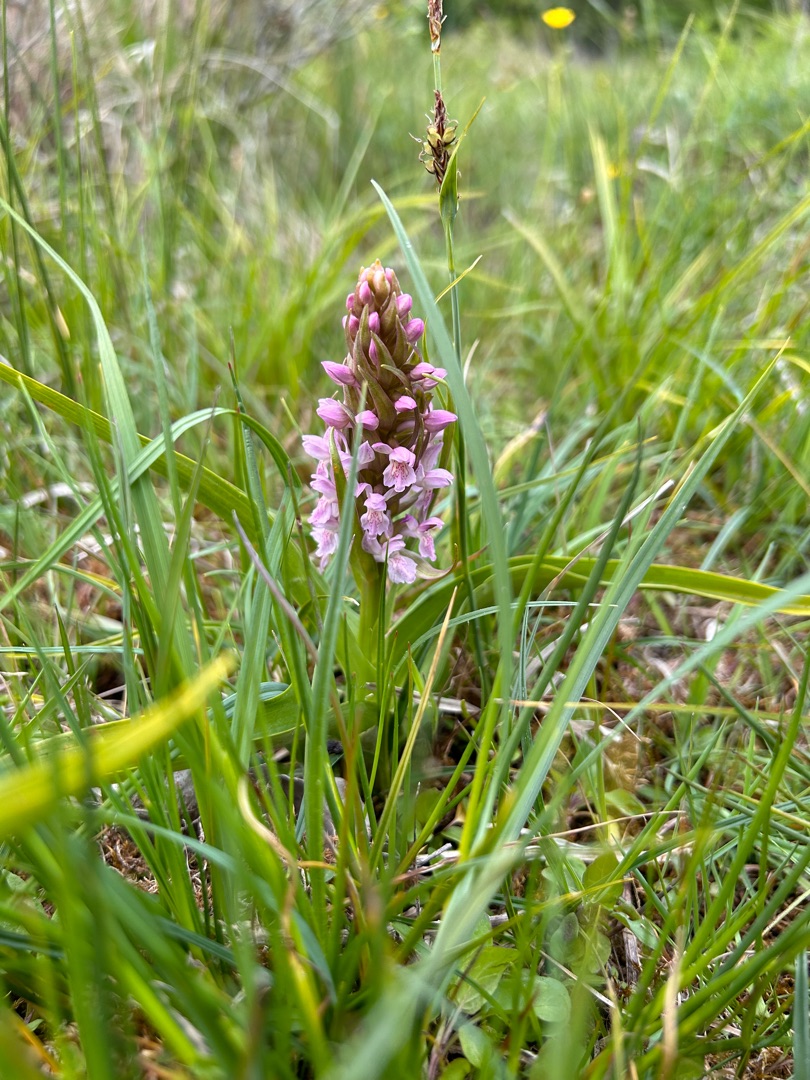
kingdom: Plantae
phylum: Tracheophyta
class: Liliopsida
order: Asparagales
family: Orchidaceae
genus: Dactylorhiza
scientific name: Dactylorhiza incarnata
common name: Kødfarvet gøgeurt
